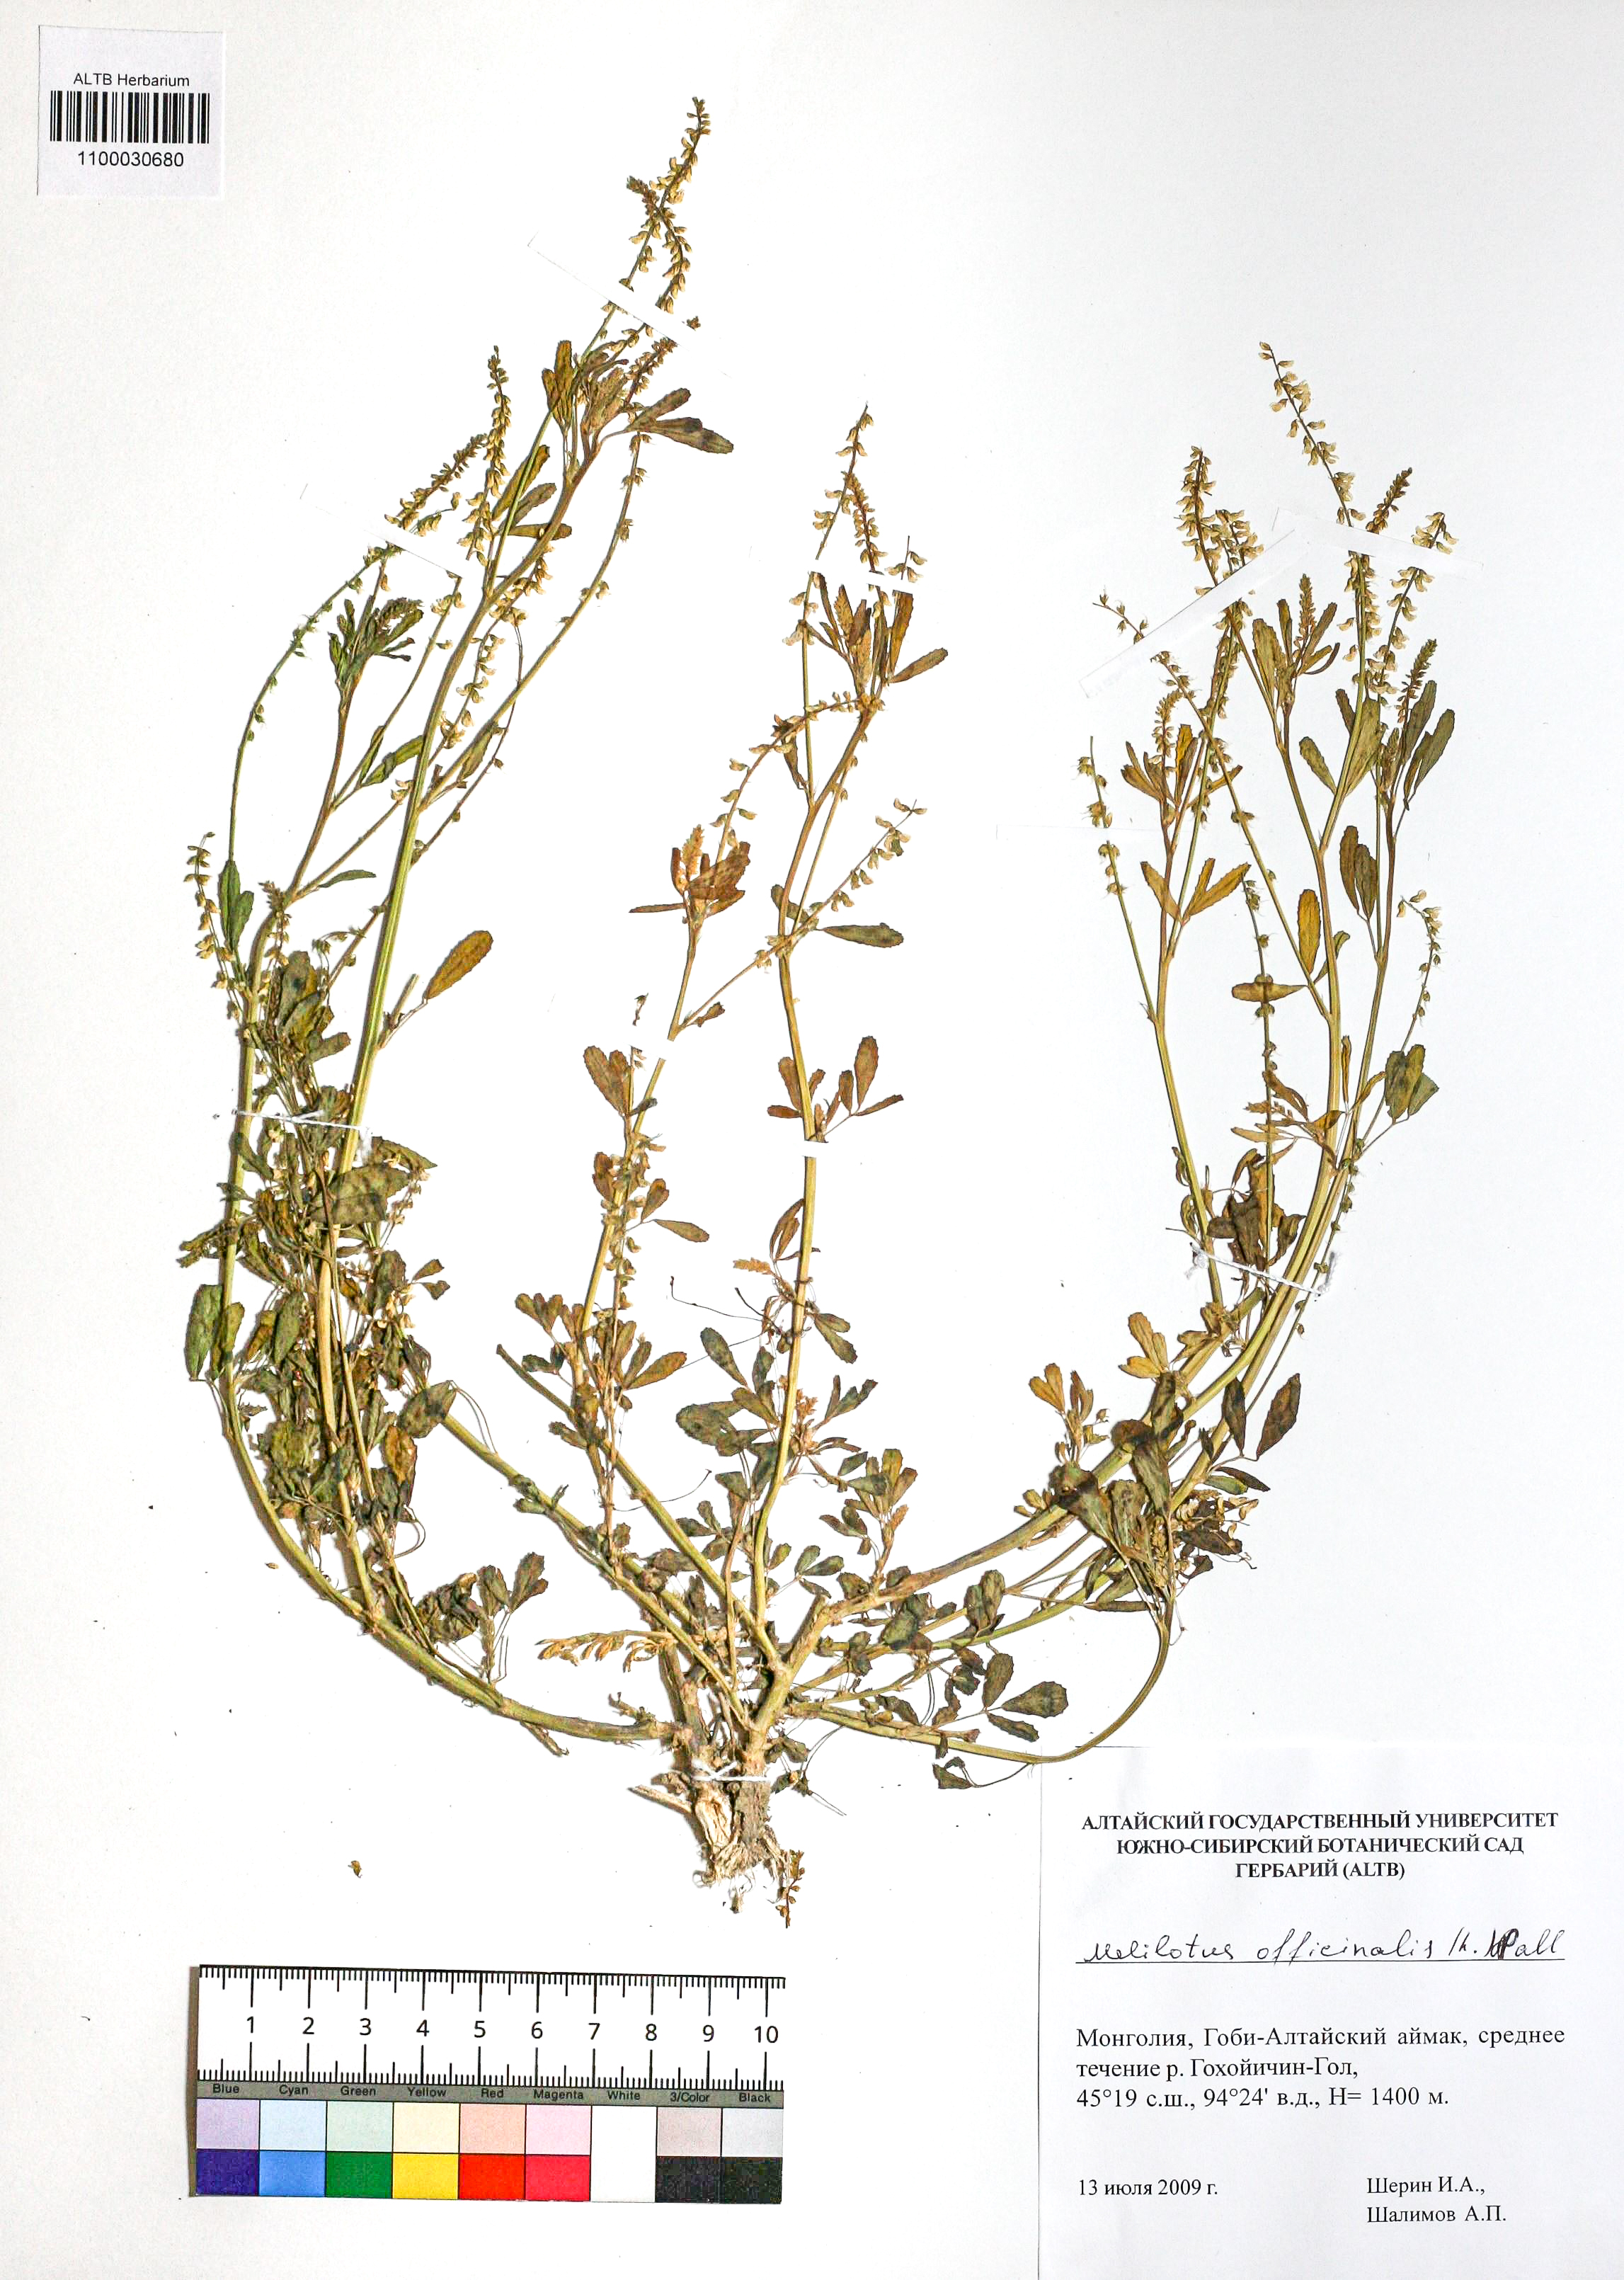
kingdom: Plantae
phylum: Tracheophyta
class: Magnoliopsida
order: Fabales
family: Fabaceae
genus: Melilotus
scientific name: Melilotus officinalis
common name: Sweetclover
